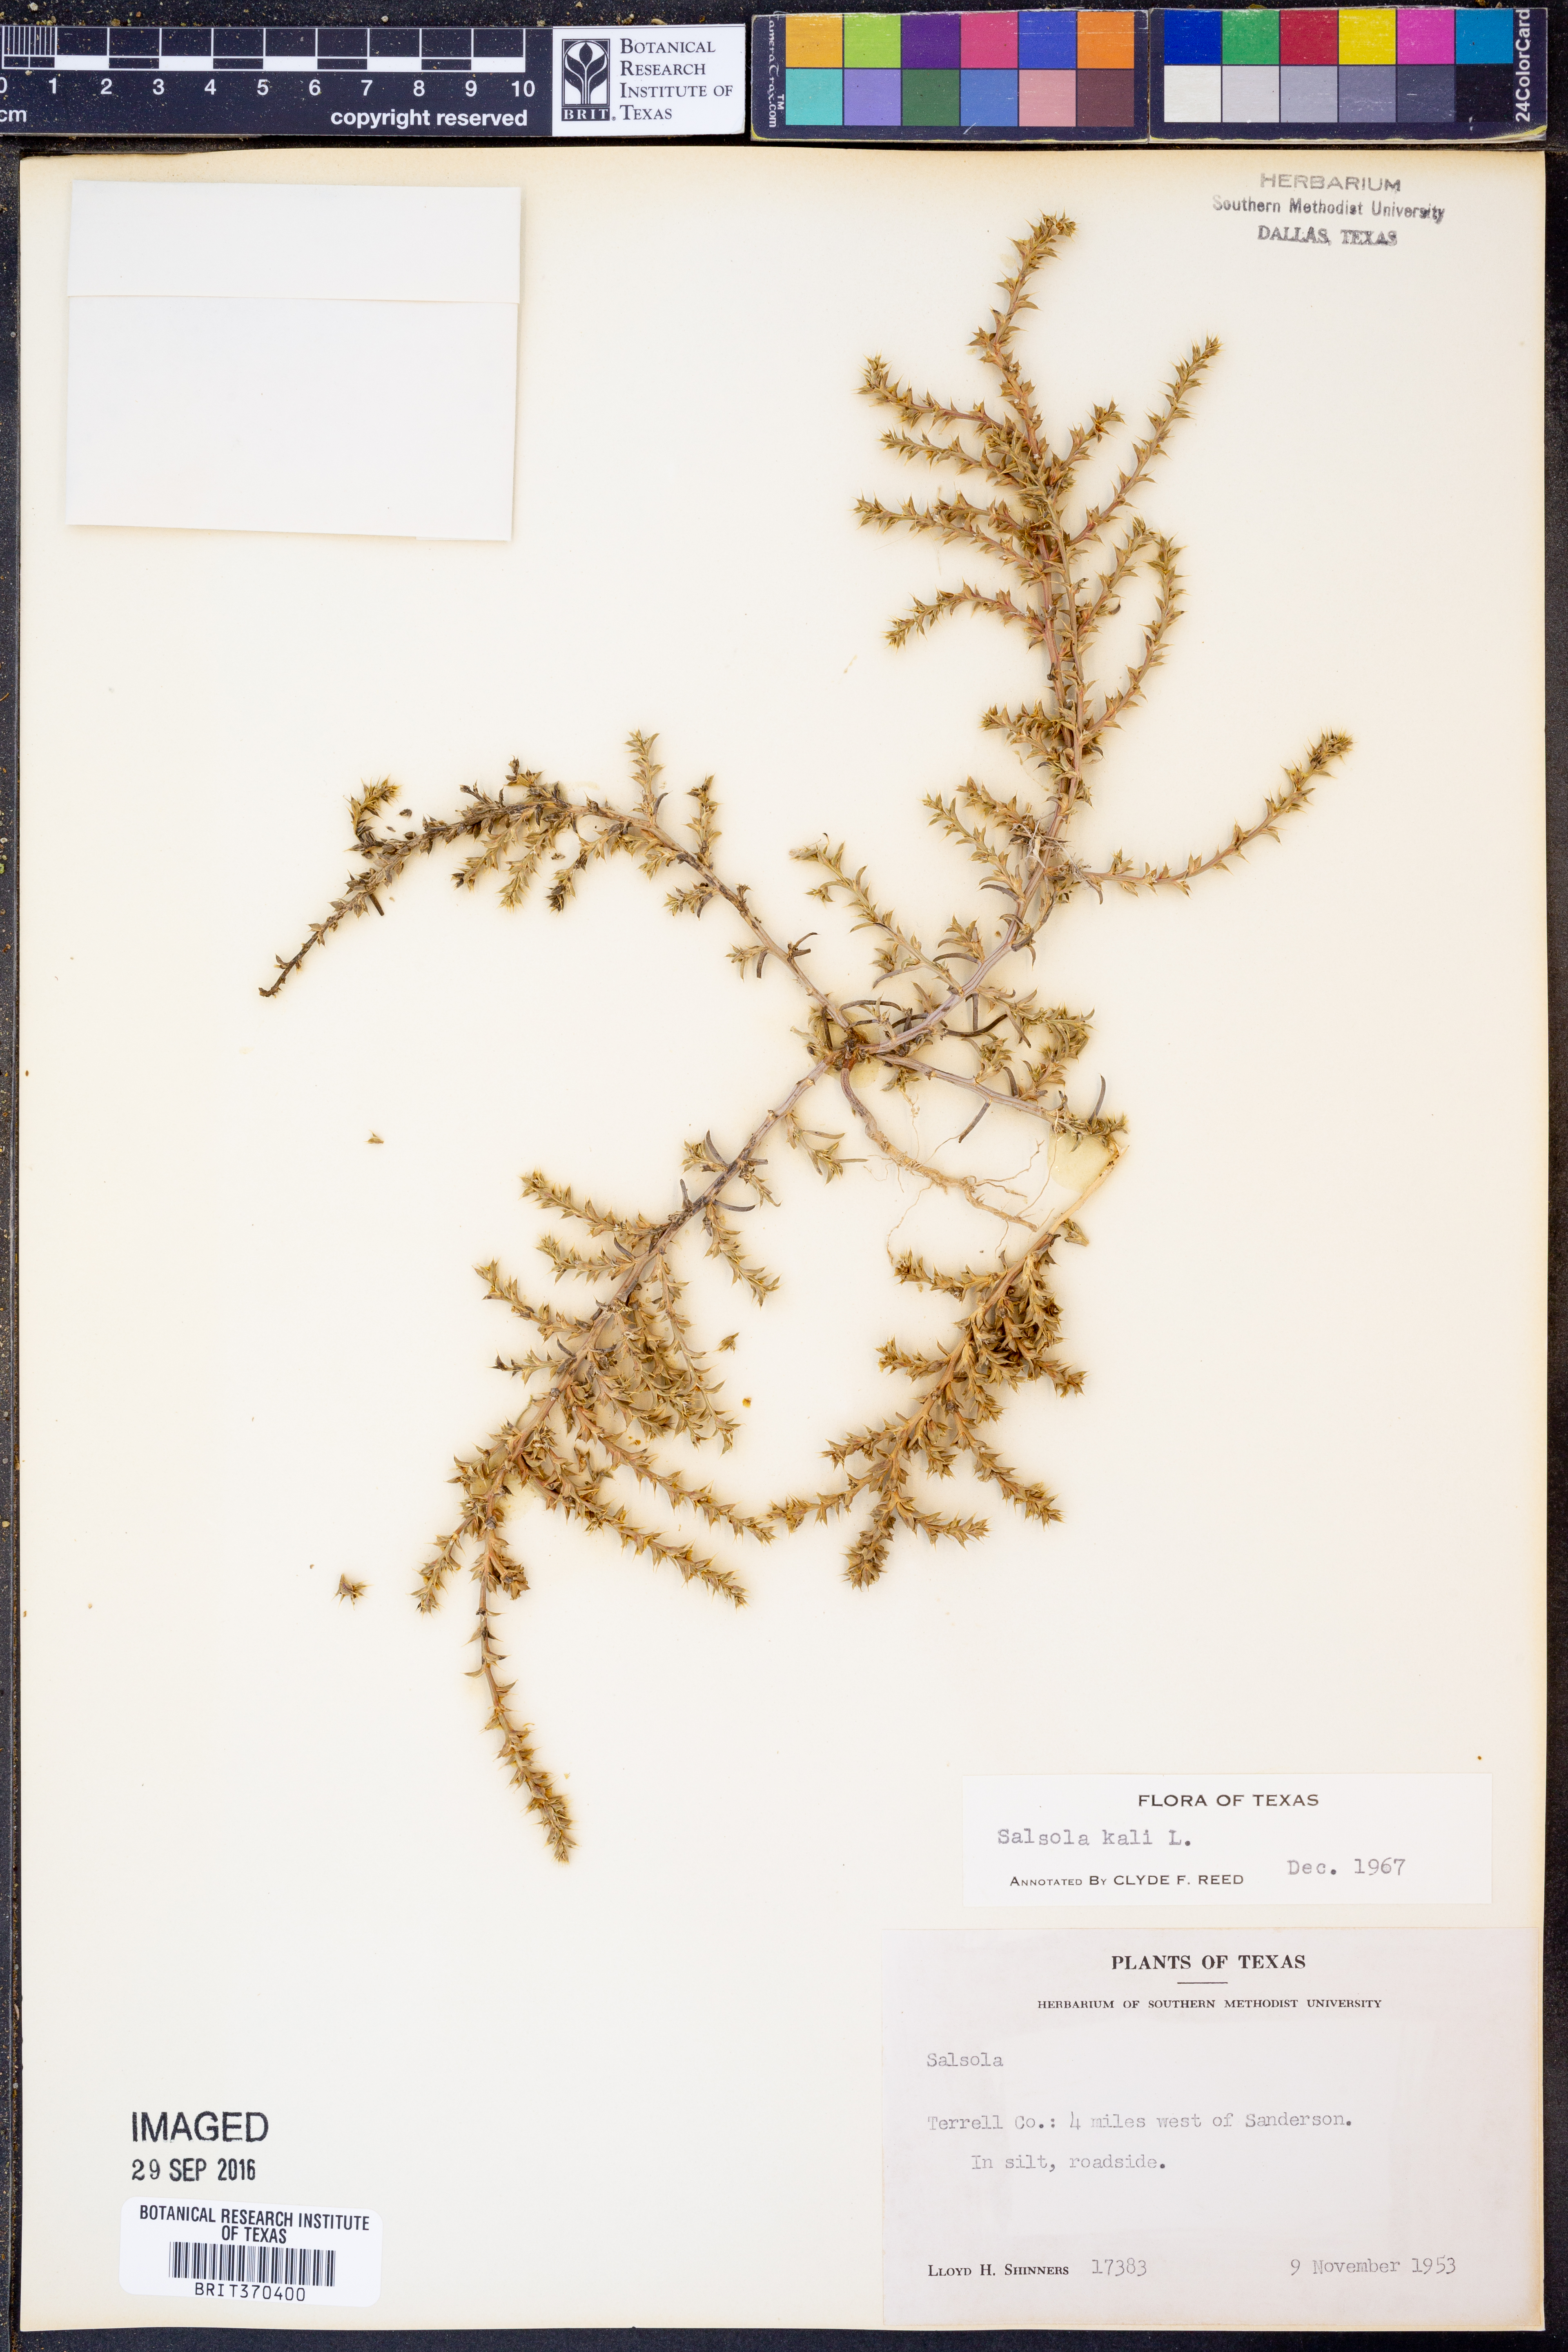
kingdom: Plantae
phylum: Tracheophyta
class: Magnoliopsida
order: Caryophyllales
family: Amaranthaceae
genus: Salsola
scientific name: Salsola kali
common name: Saltwort
